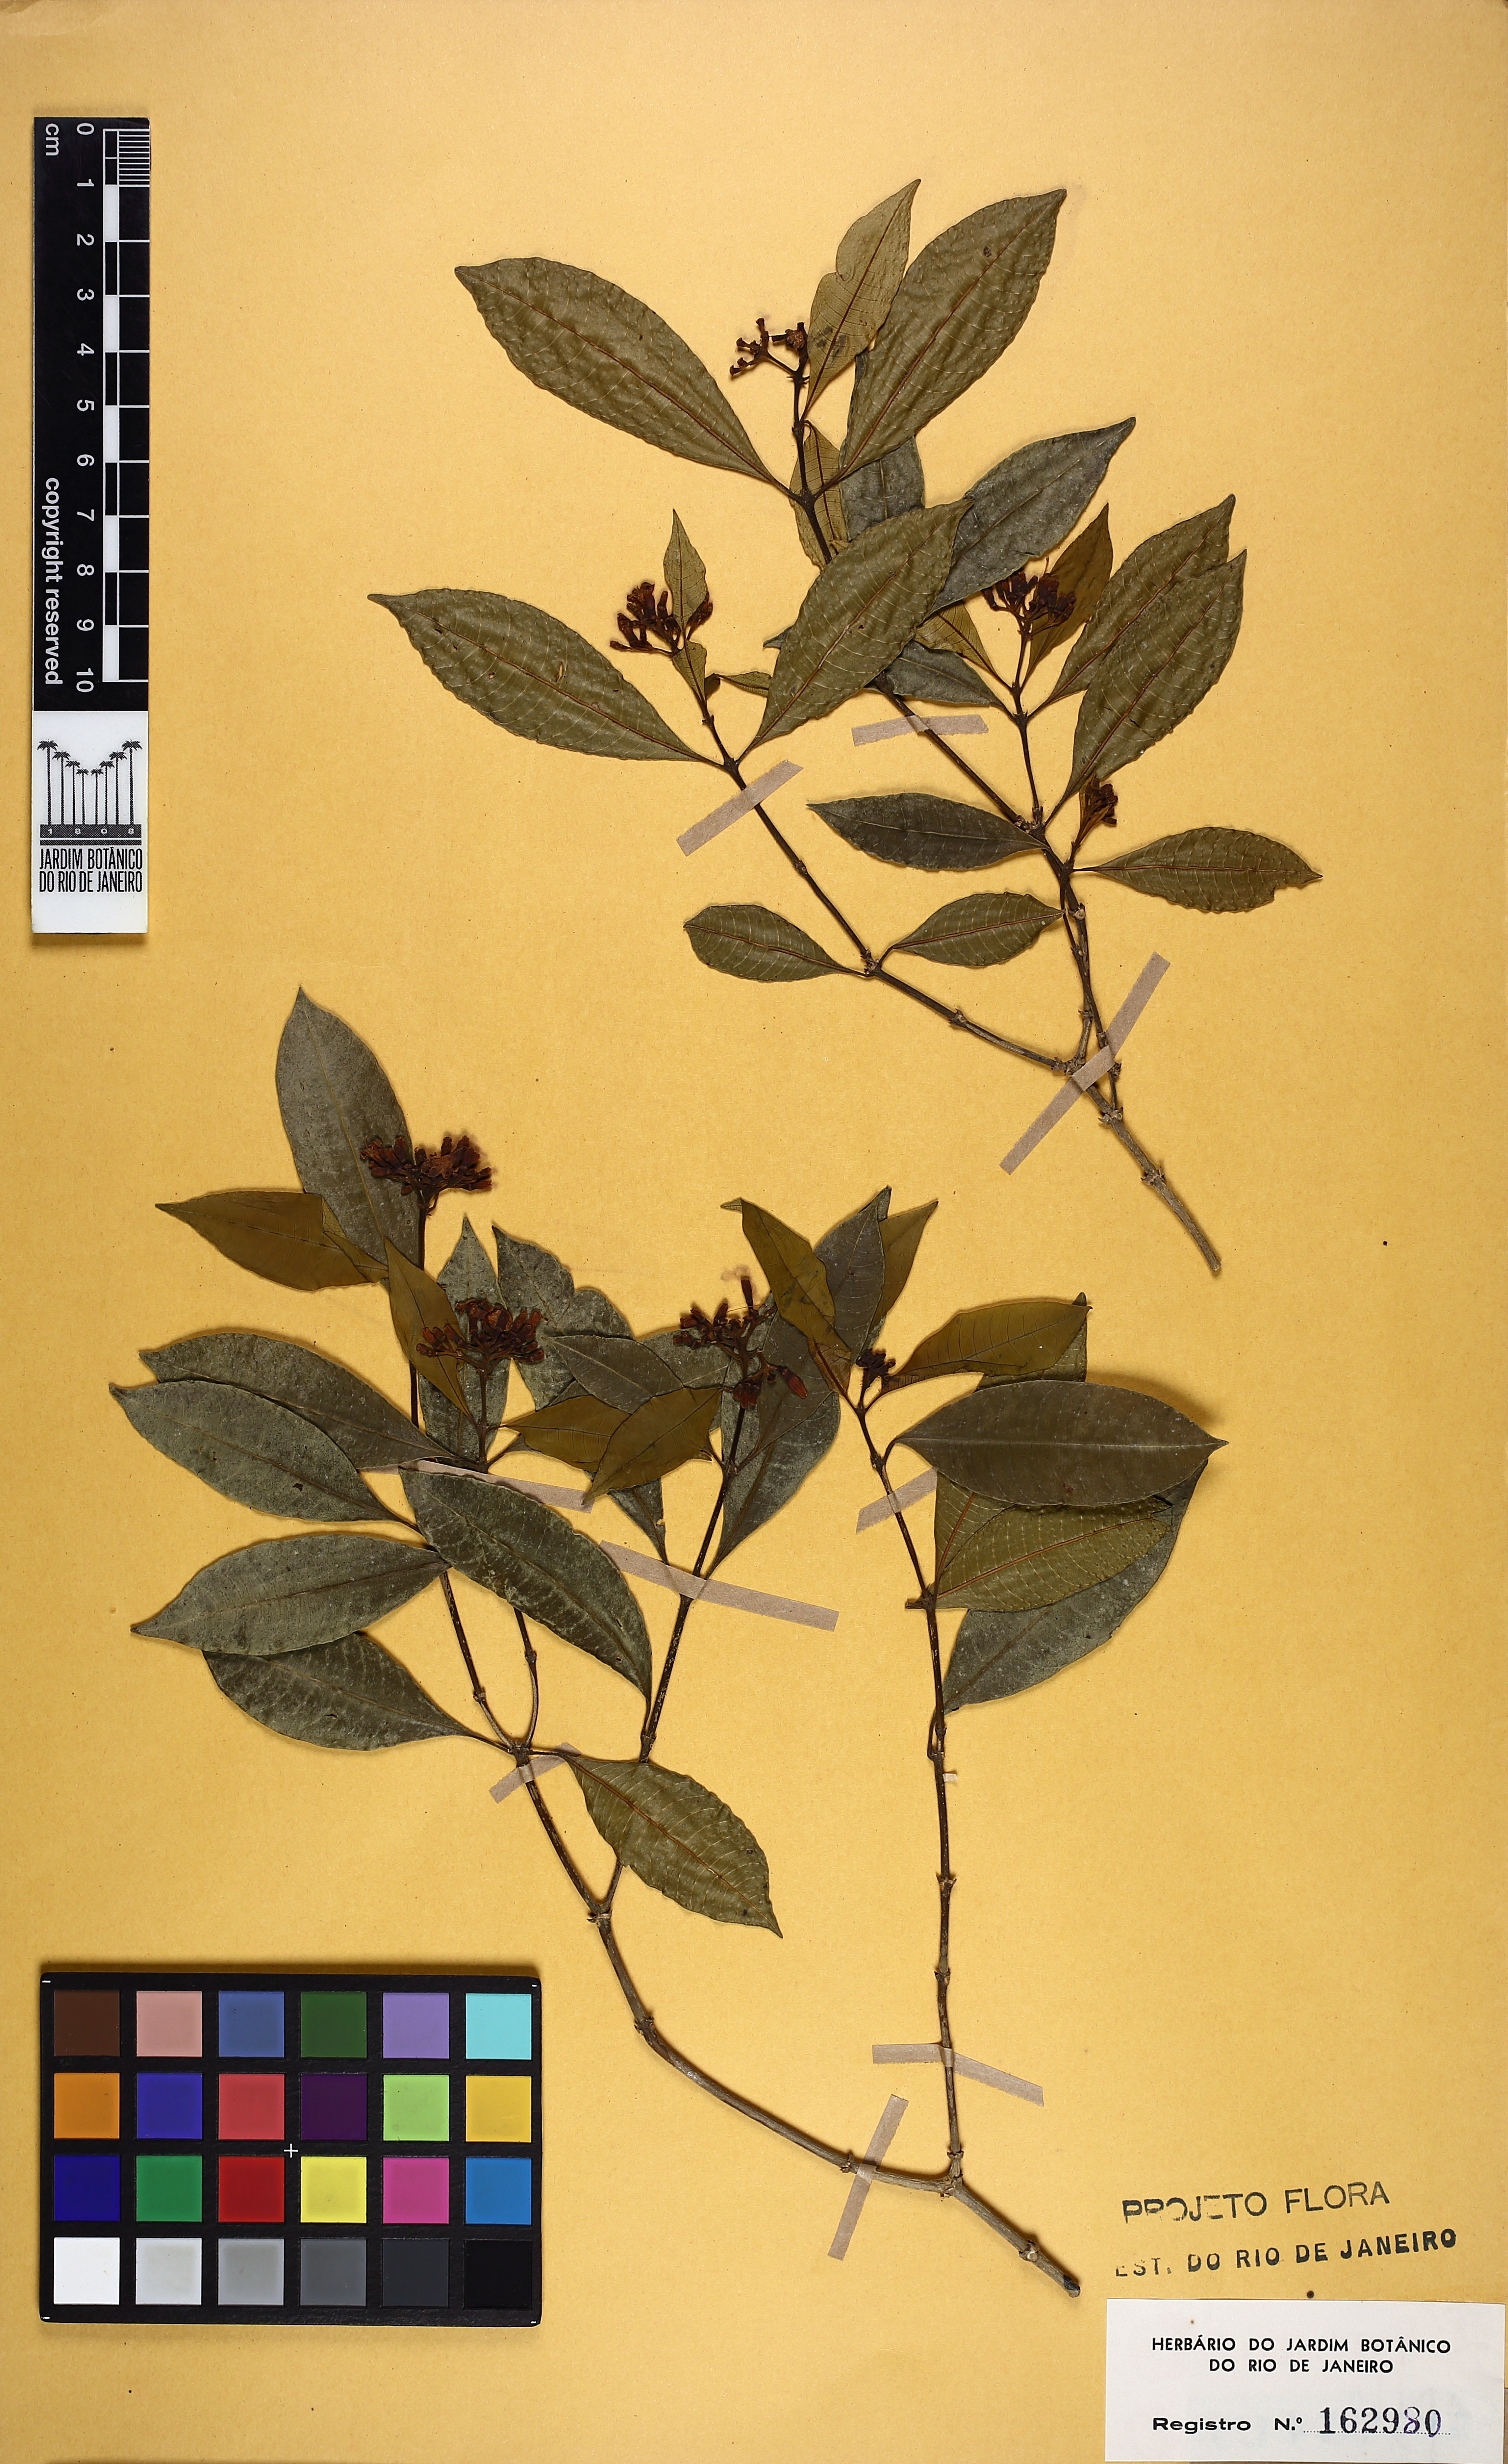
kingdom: Plantae
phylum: Tracheophyta
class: Magnoliopsida
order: Gentianales
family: Rubiaceae
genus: Psychotria
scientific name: Psychotria tenuinervis
